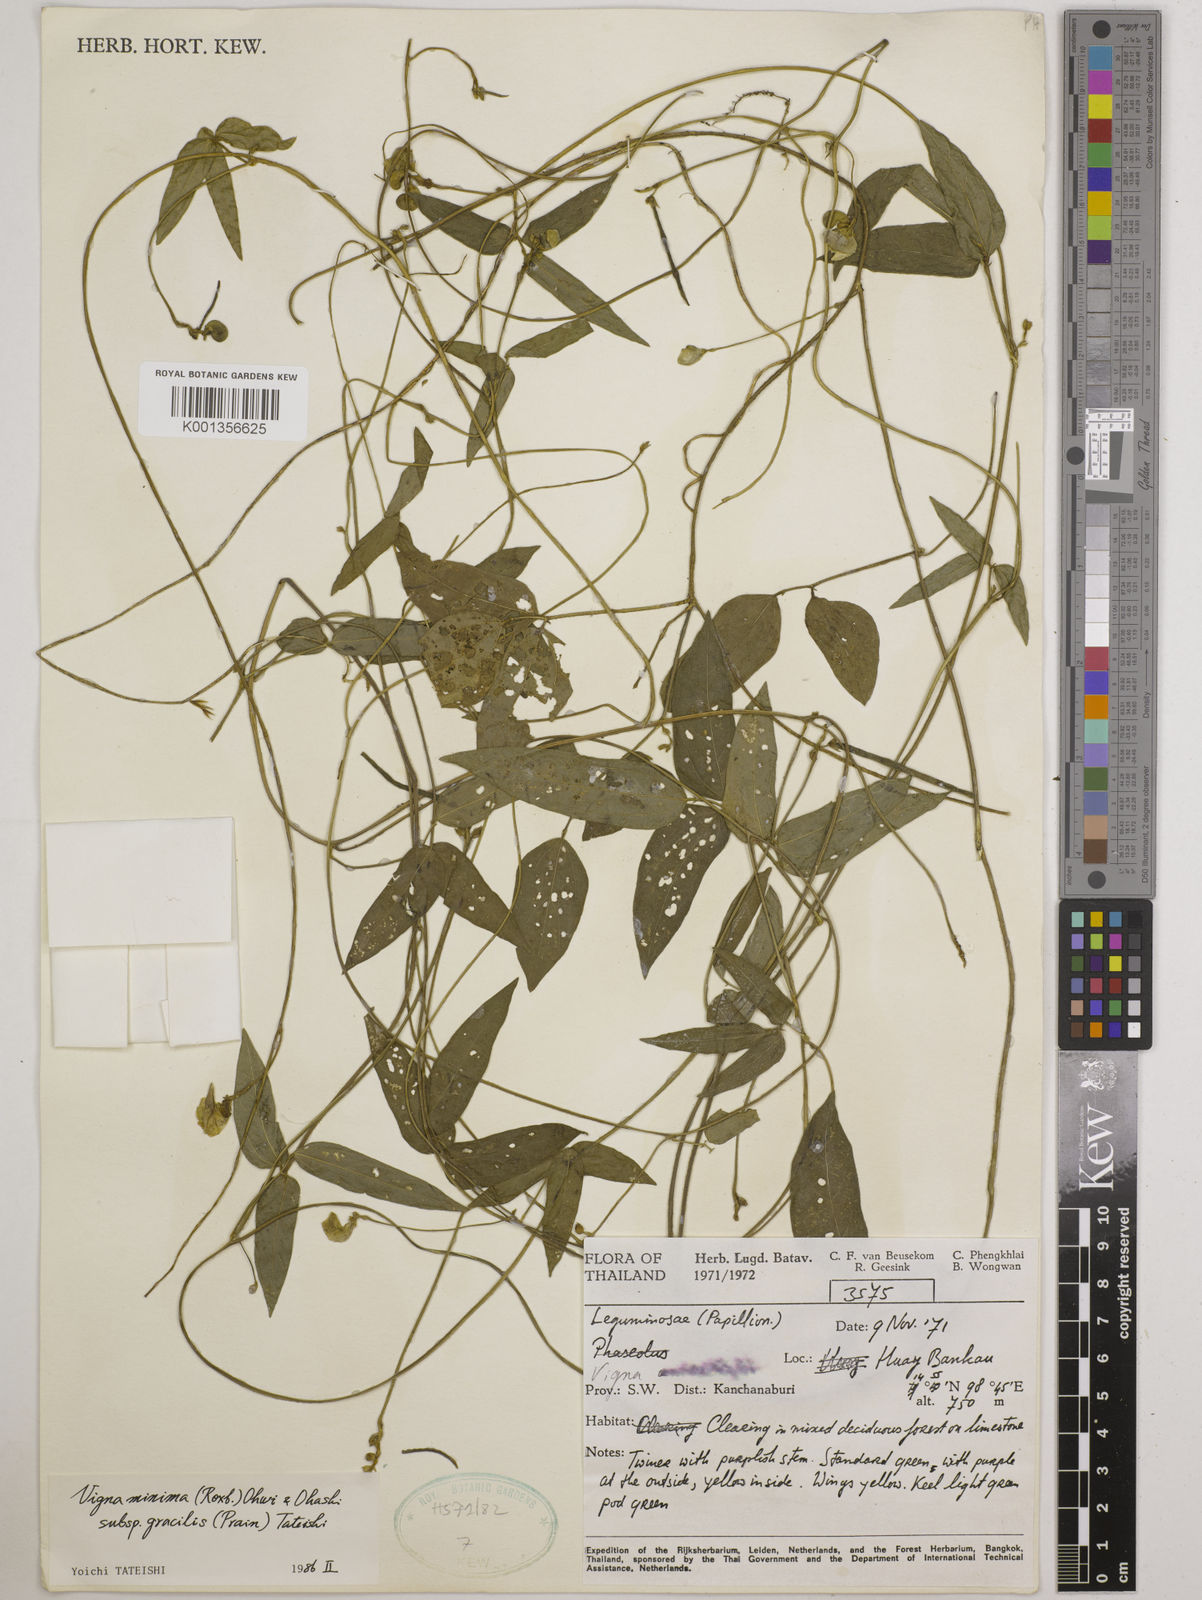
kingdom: Plantae
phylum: Tracheophyta
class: Magnoliopsida
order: Fabales
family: Fabaceae
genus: Vigna
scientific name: Vigna
